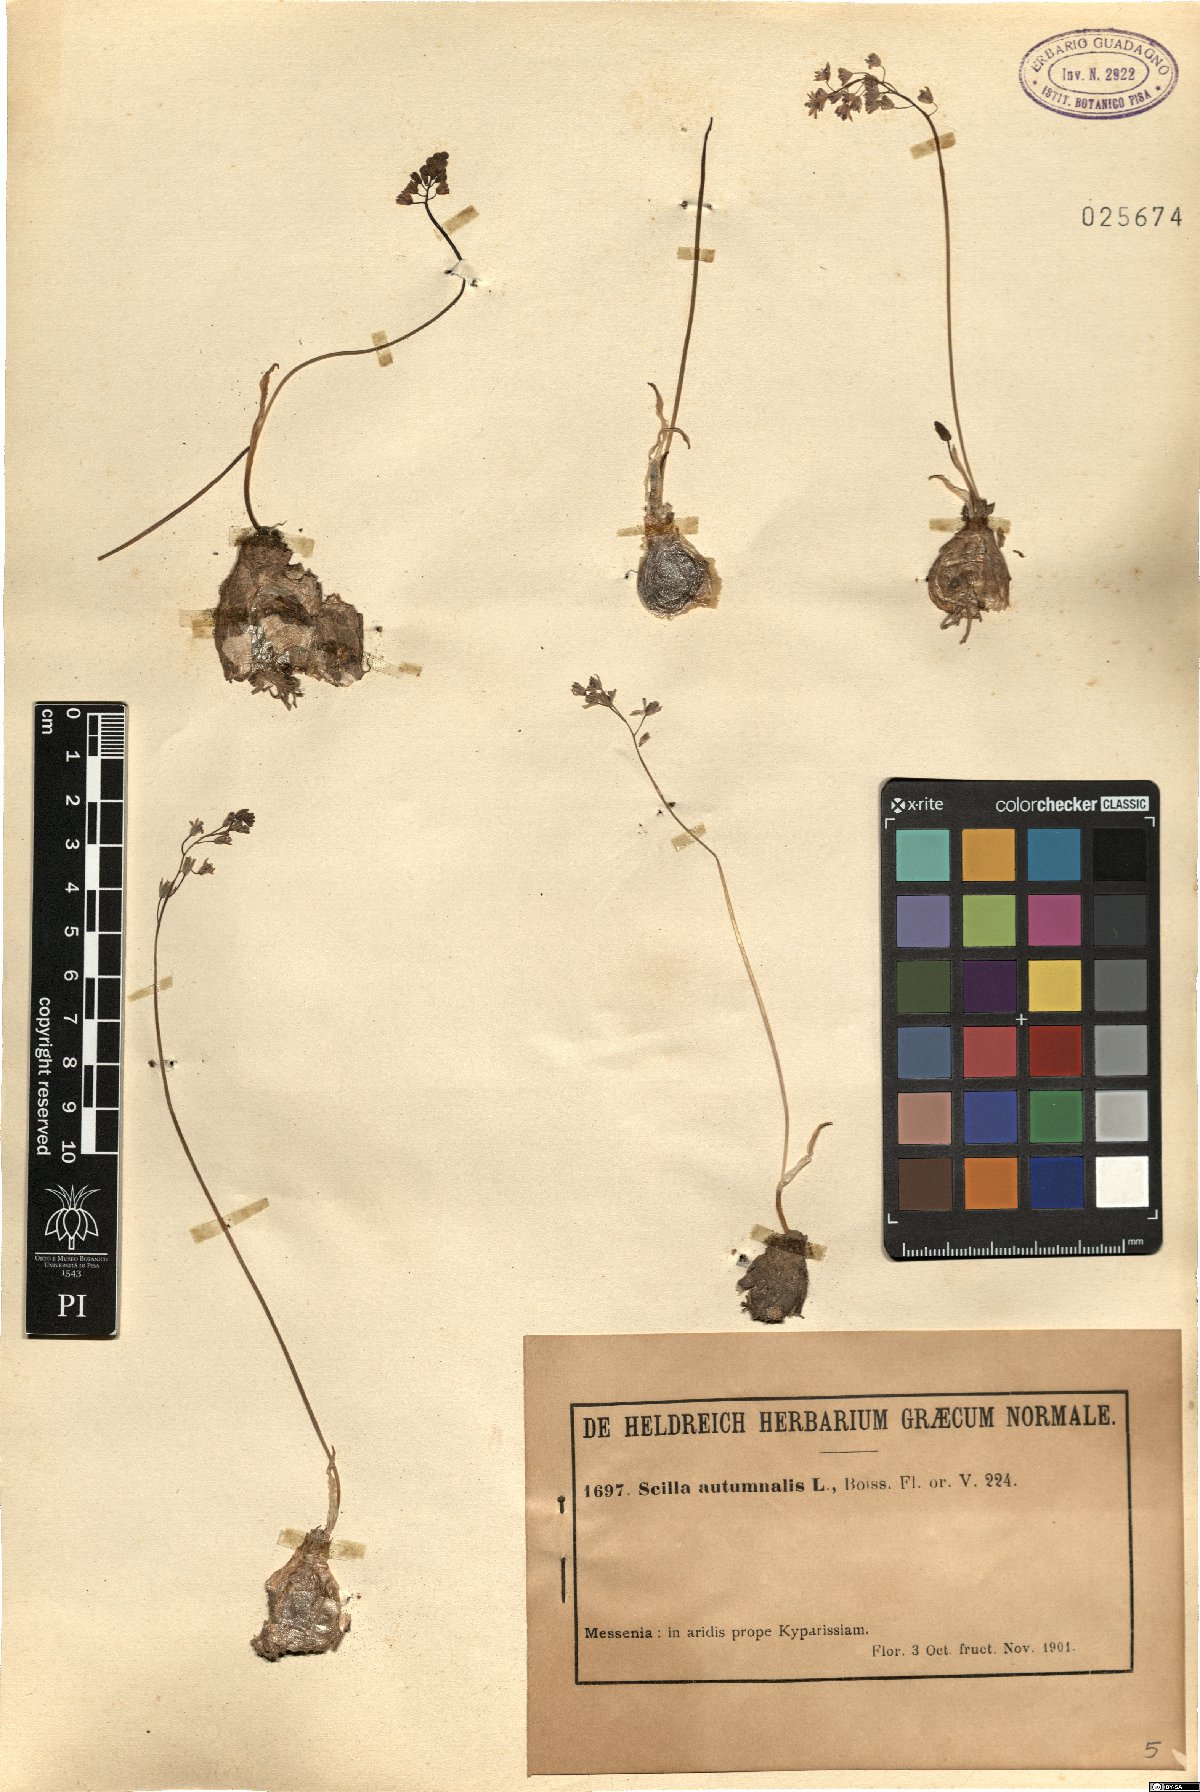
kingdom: Plantae
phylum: Tracheophyta
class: Liliopsida
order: Asparagales
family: Asparagaceae
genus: Prospero
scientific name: Prospero autumnale
